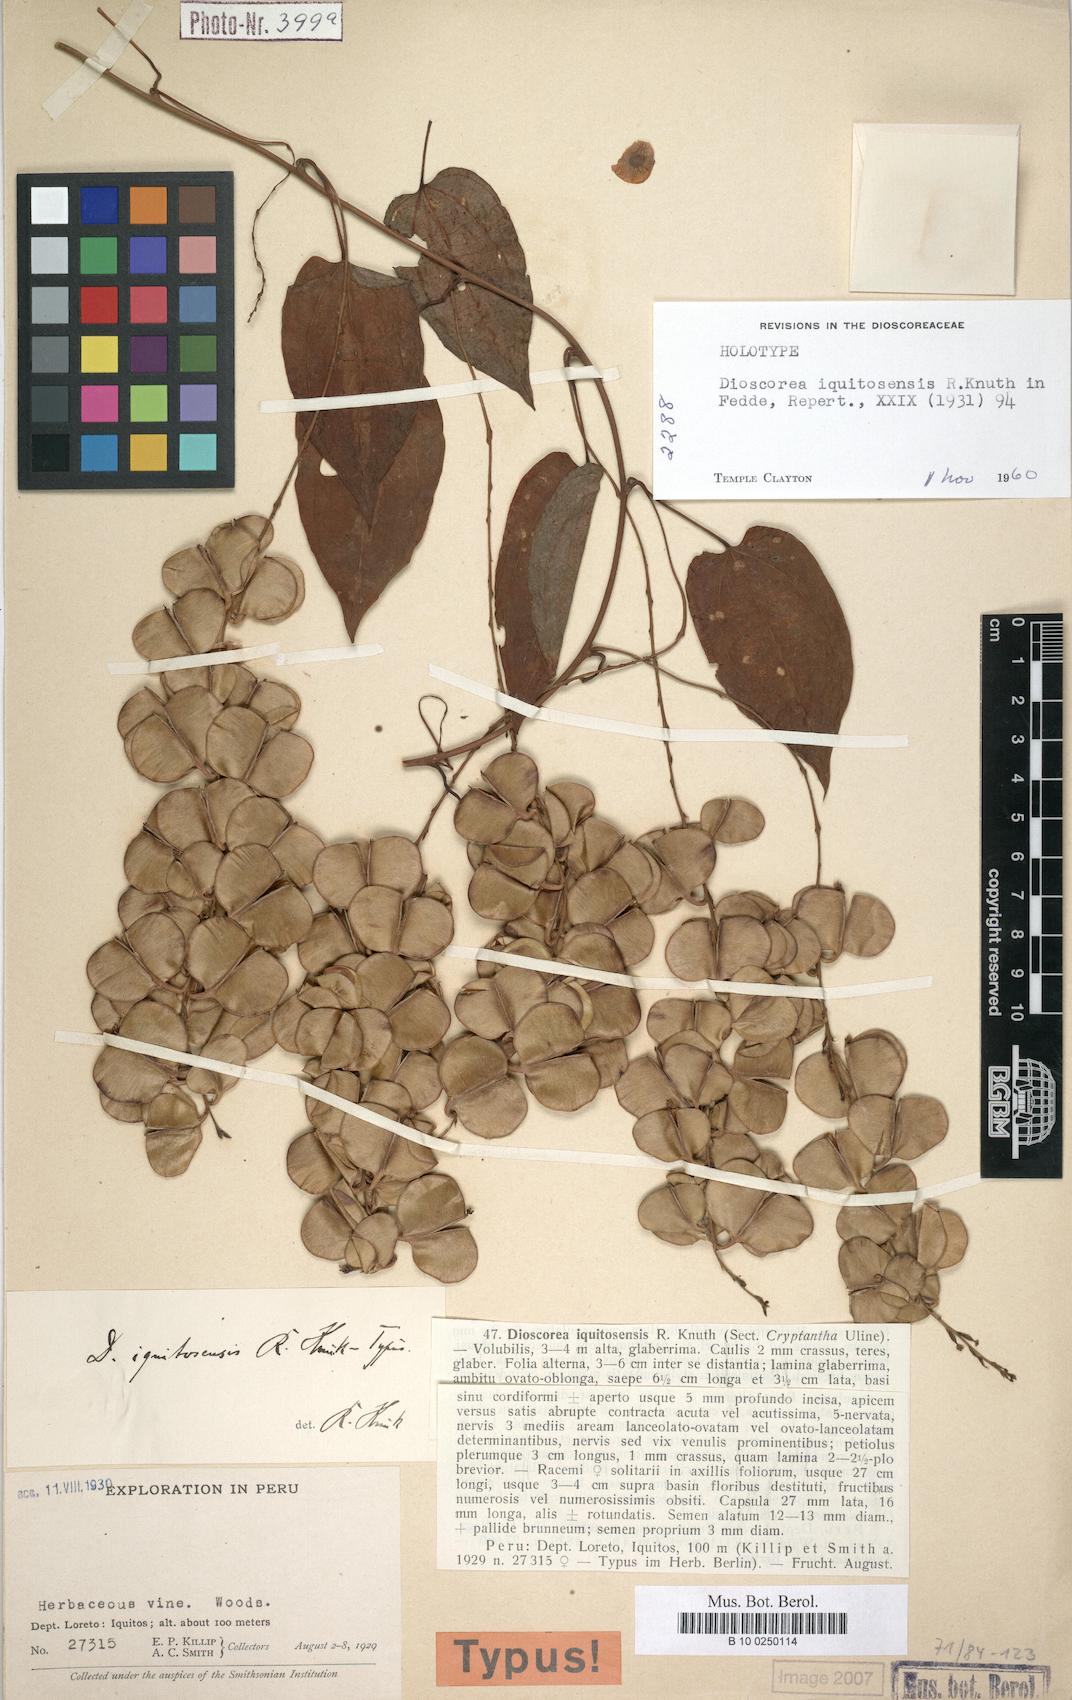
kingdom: Plantae
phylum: Tracheophyta
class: Liliopsida
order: Dioscoreales
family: Dioscoreaceae
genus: Dioscorea
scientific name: Dioscorea iquitosensis
